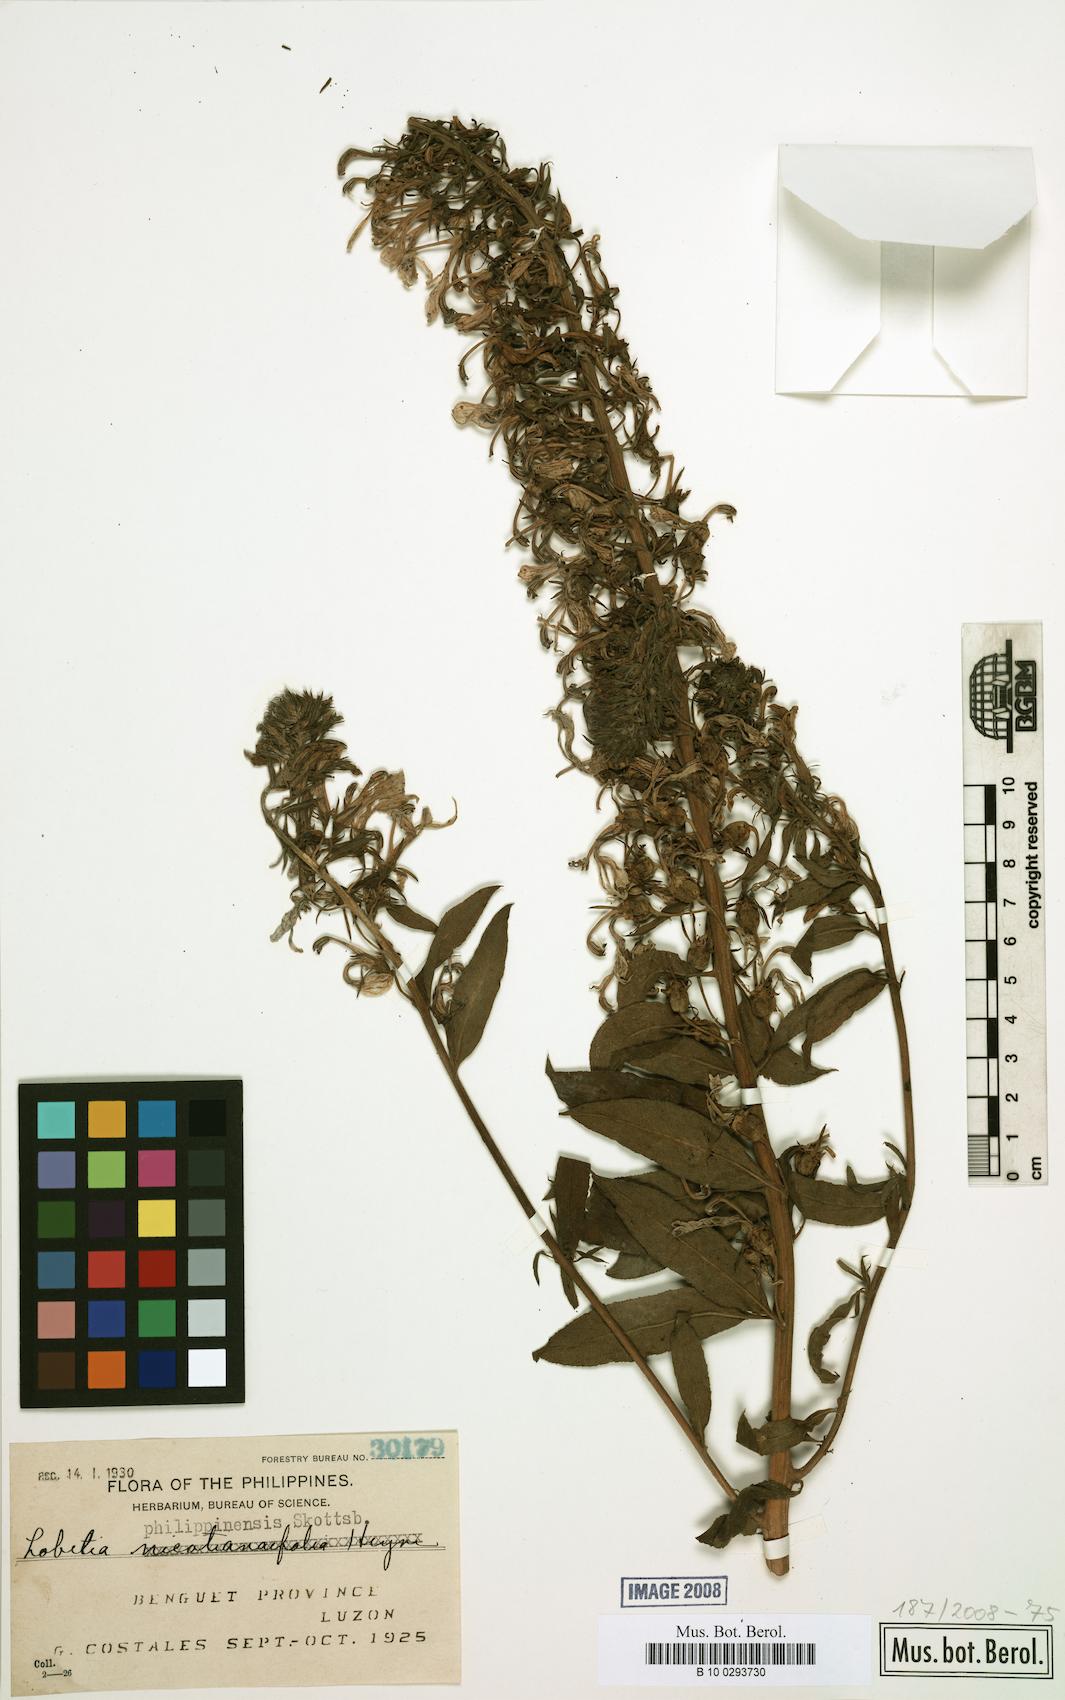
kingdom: Plantae
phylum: Tracheophyta
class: Magnoliopsida
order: Asterales
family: Campanulaceae
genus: Lobelia
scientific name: Lobelia philippinensis
